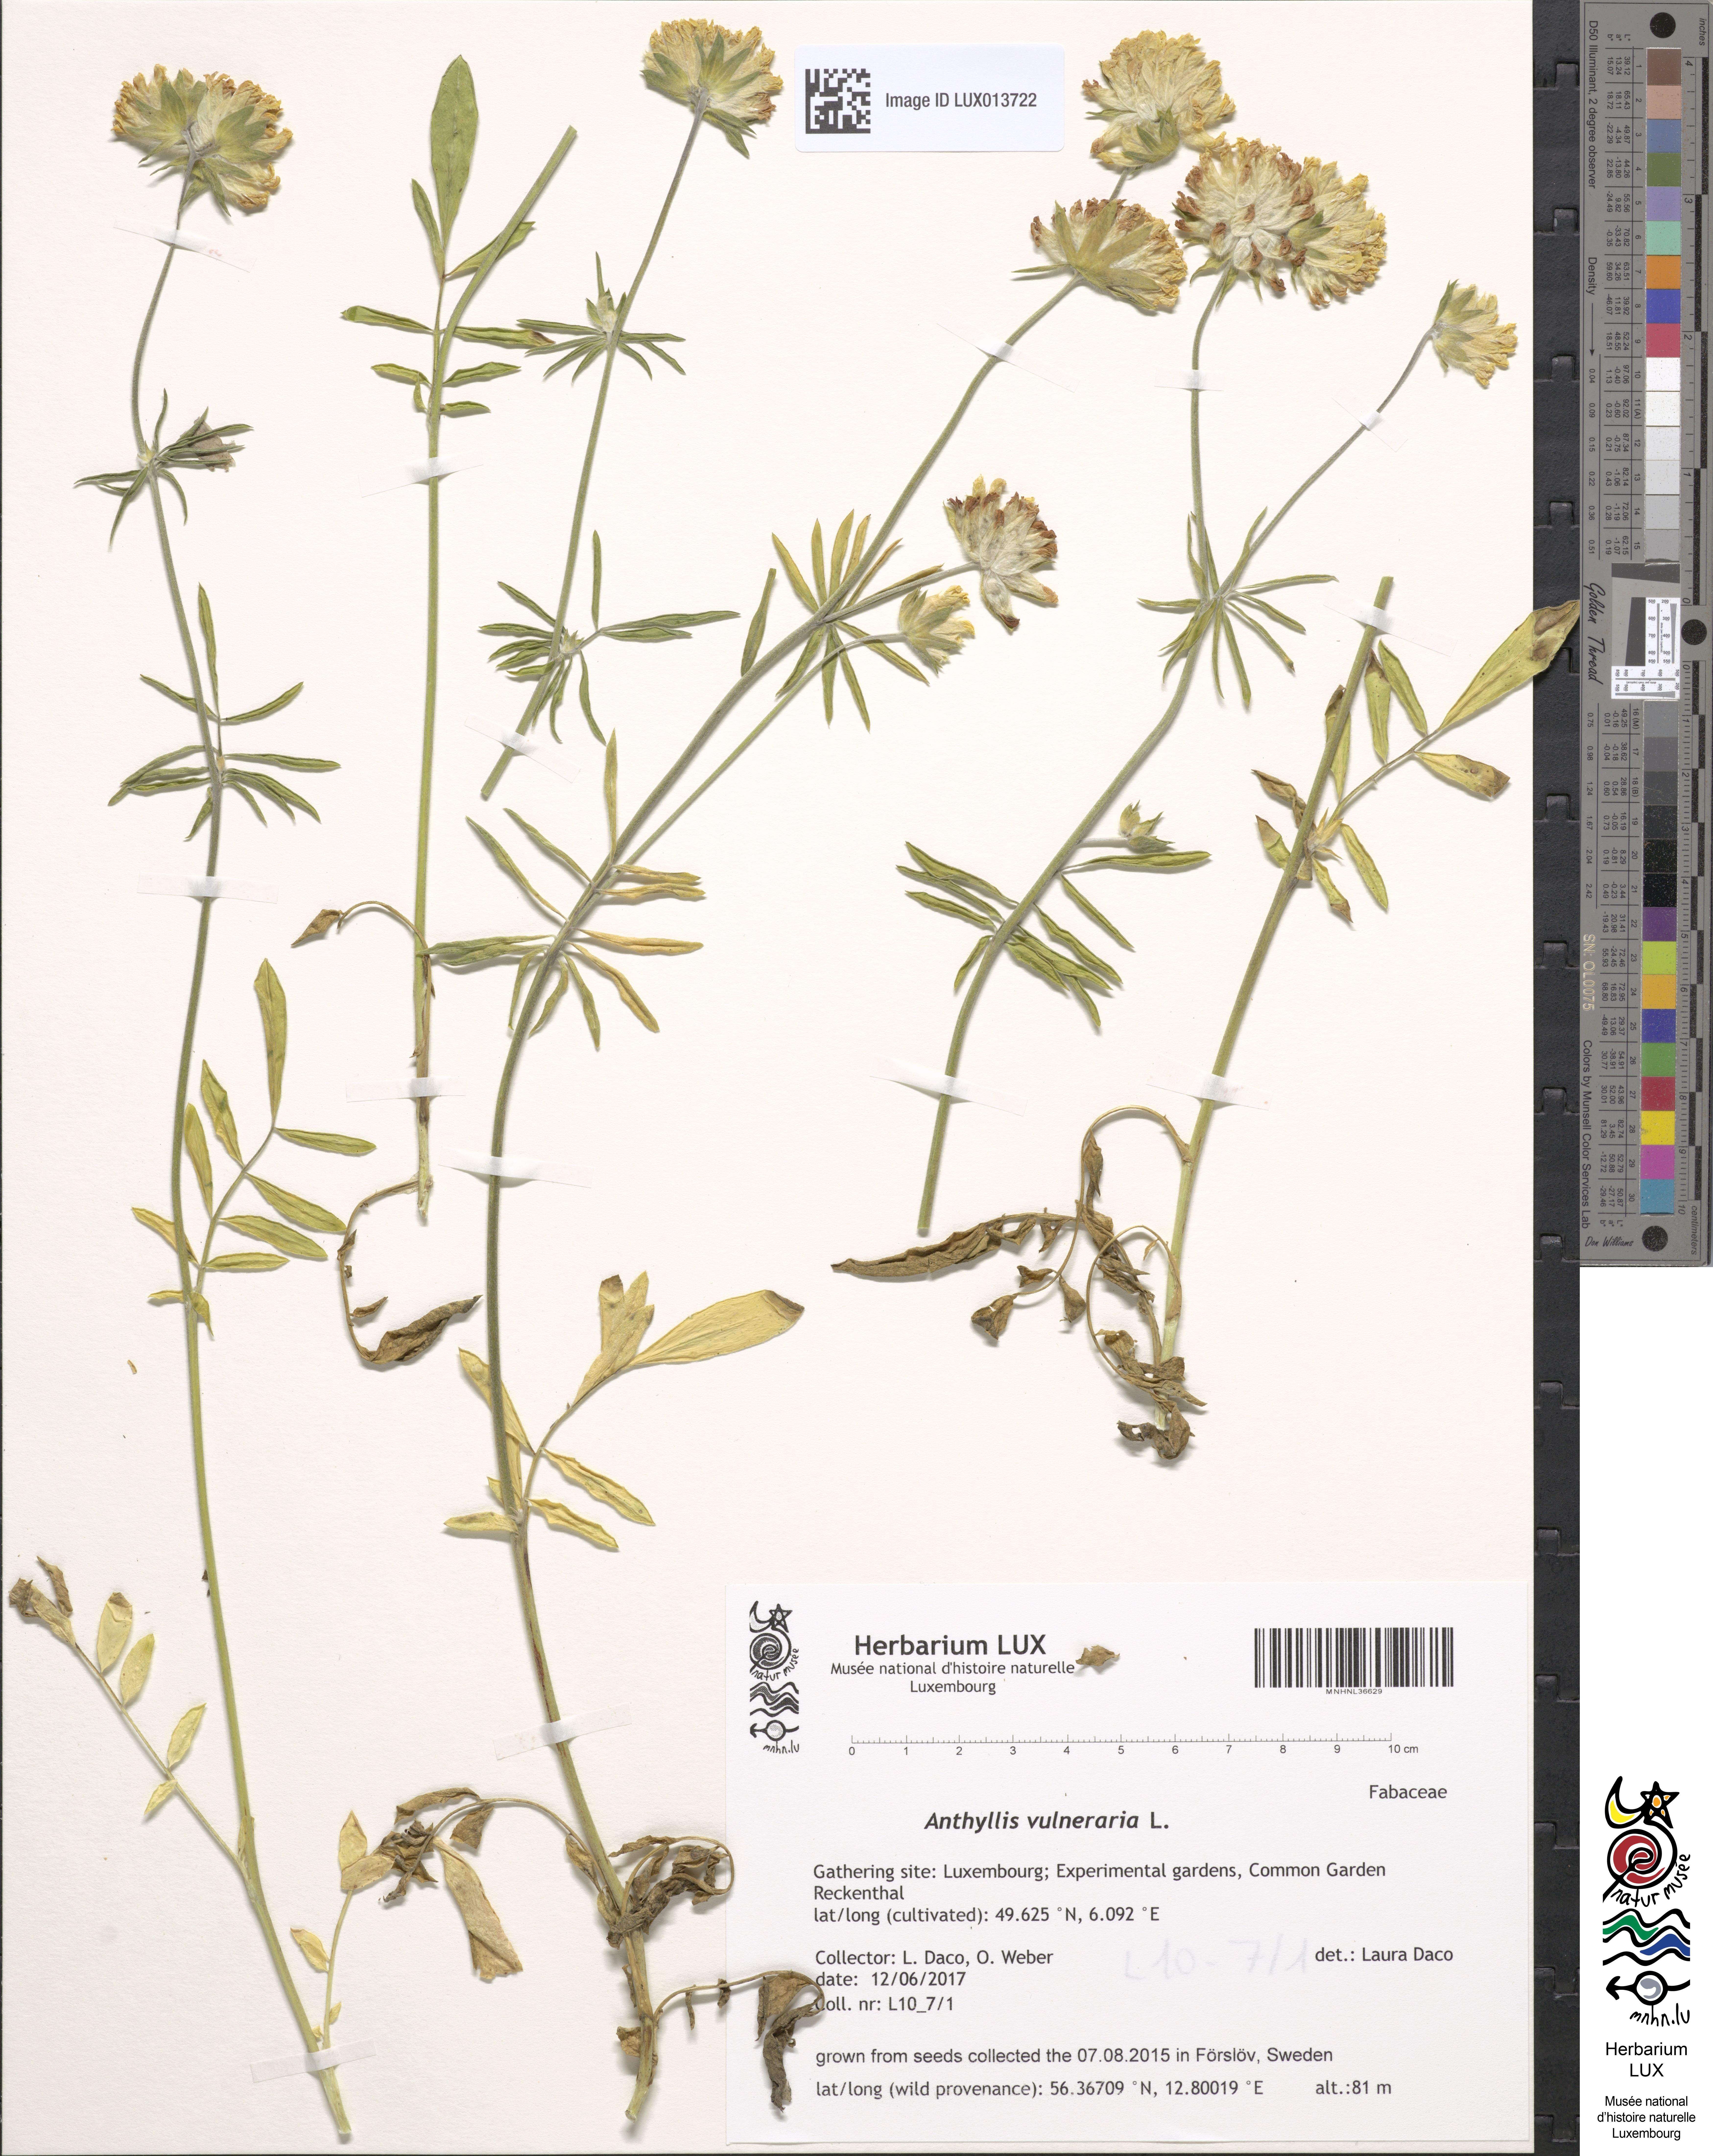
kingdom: Plantae
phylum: Tracheophyta
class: Magnoliopsida
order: Fabales
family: Fabaceae
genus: Anthyllis
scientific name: Anthyllis vulneraria
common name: Kidney vetch
